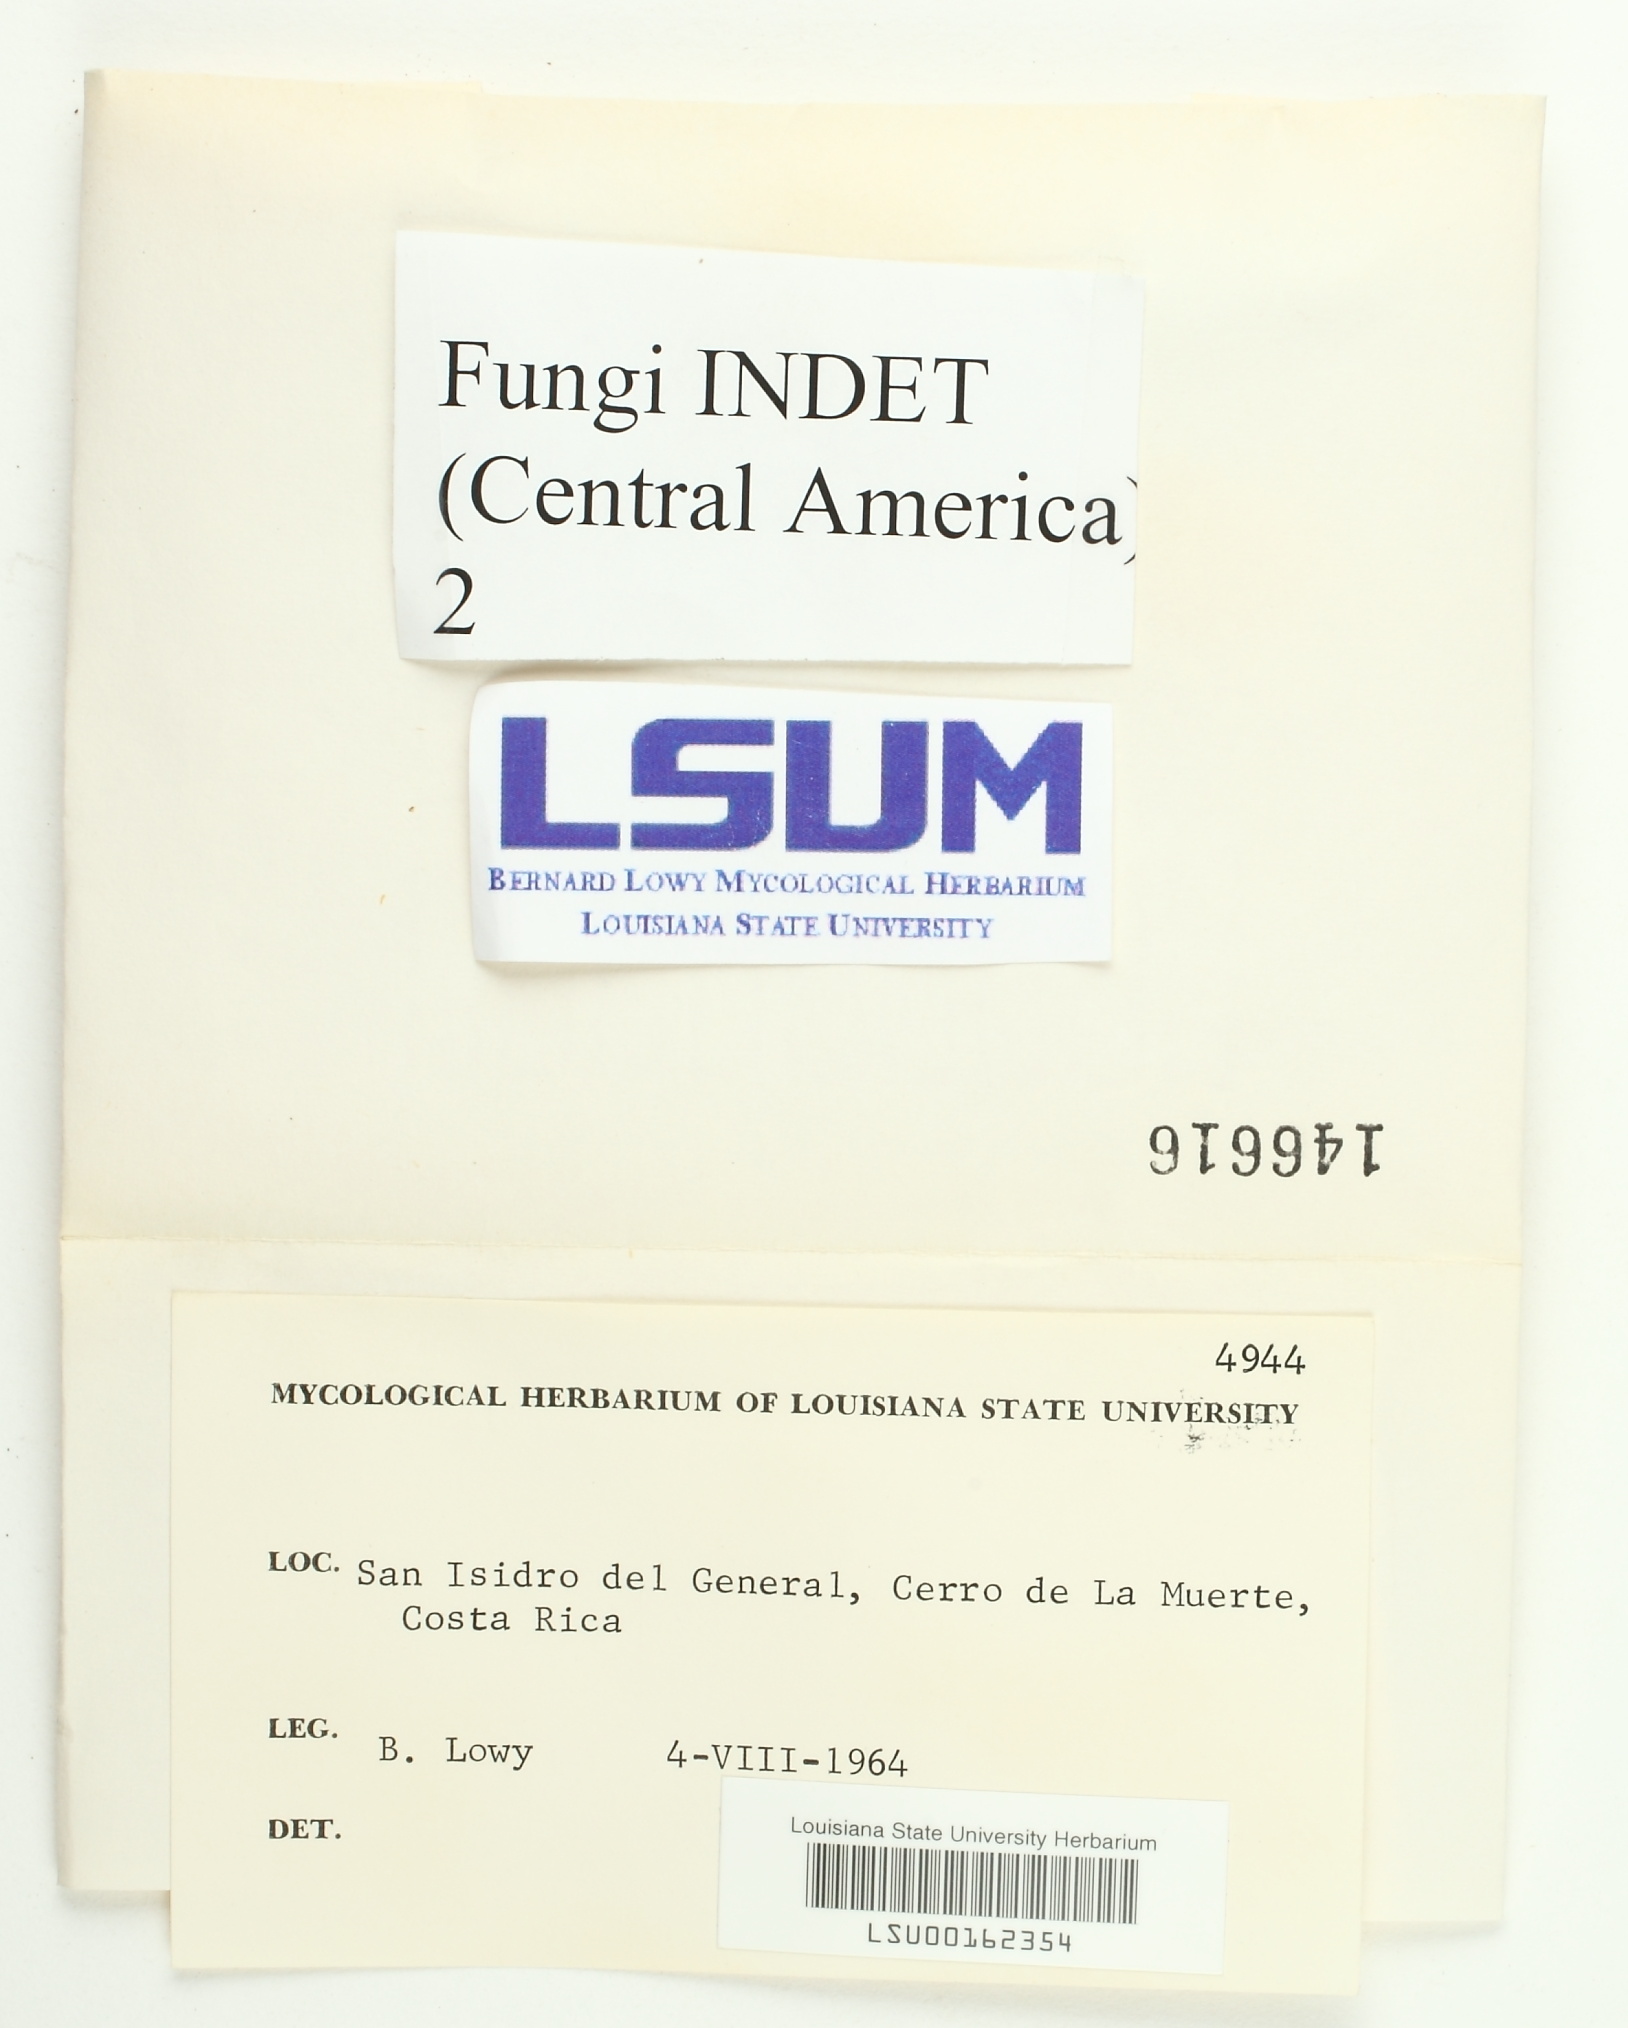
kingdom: Fungi
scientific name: Fungi
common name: Fungi
